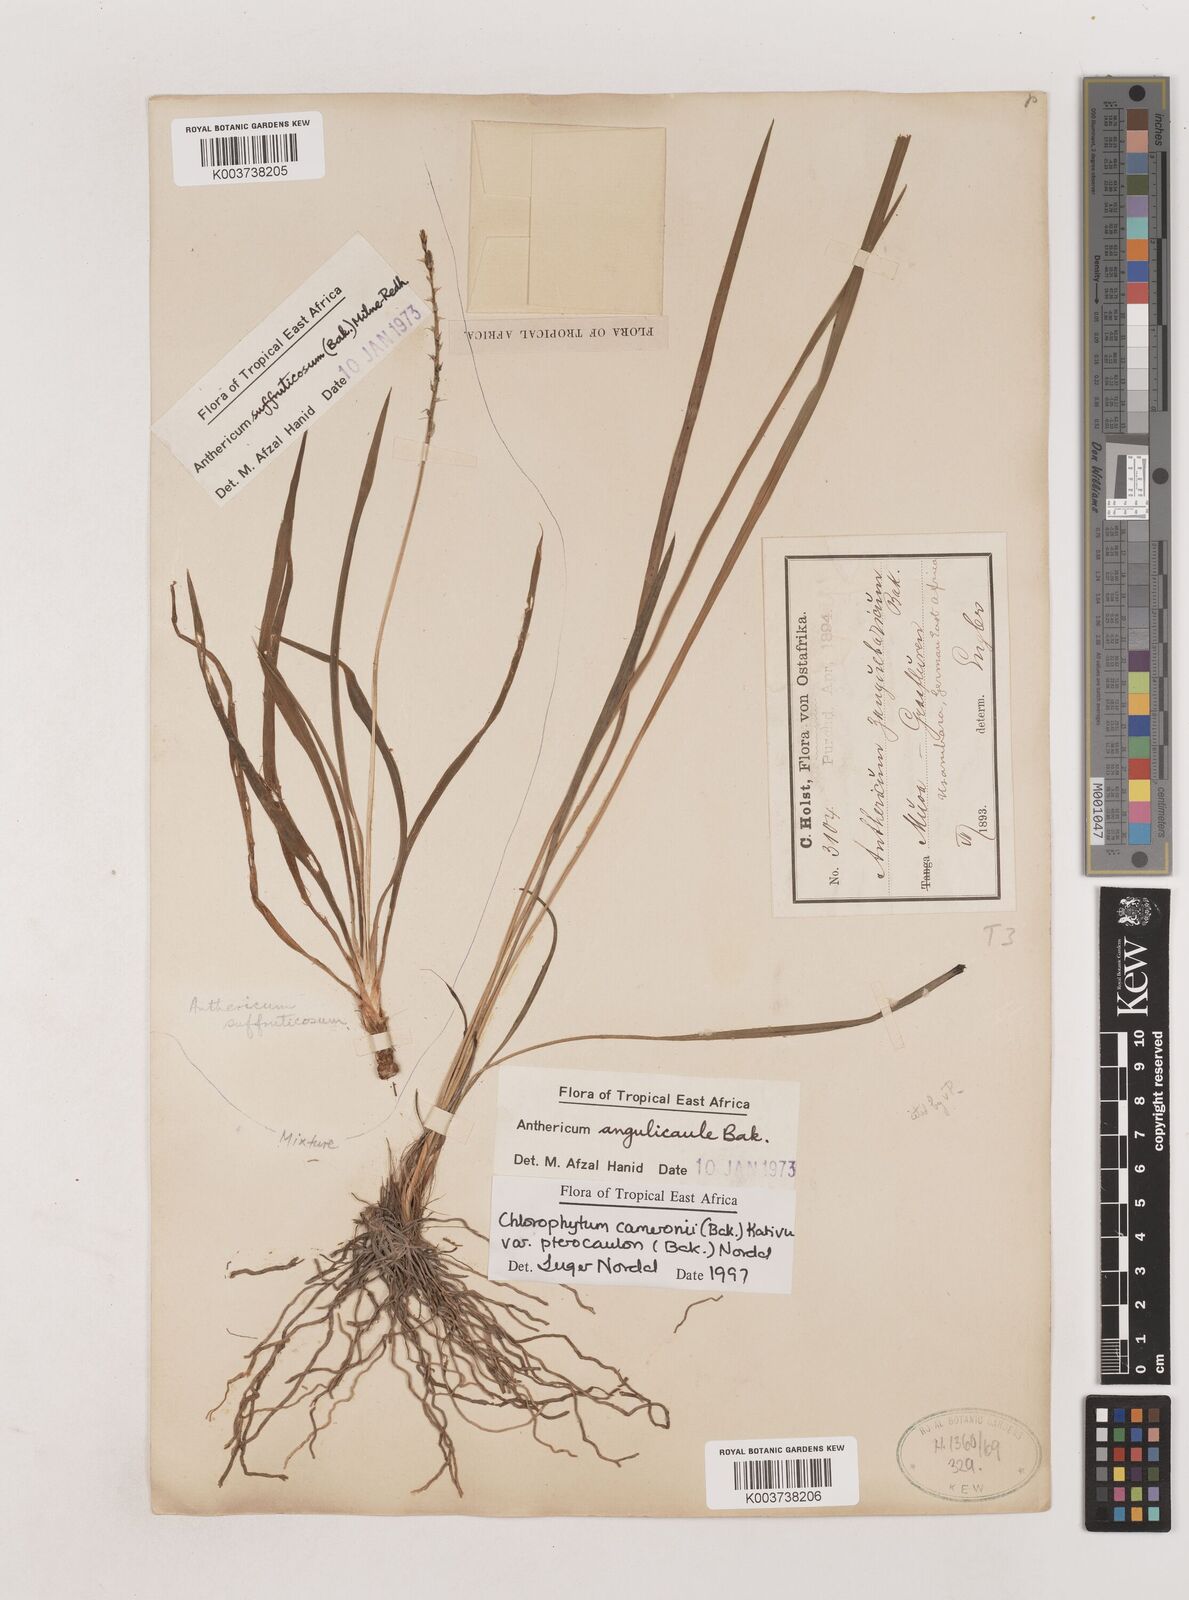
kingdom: Plantae
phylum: Tracheophyta
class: Liliopsida
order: Asparagales
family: Asparagaceae
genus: Chlorophytum
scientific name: Chlorophytum cameronii
